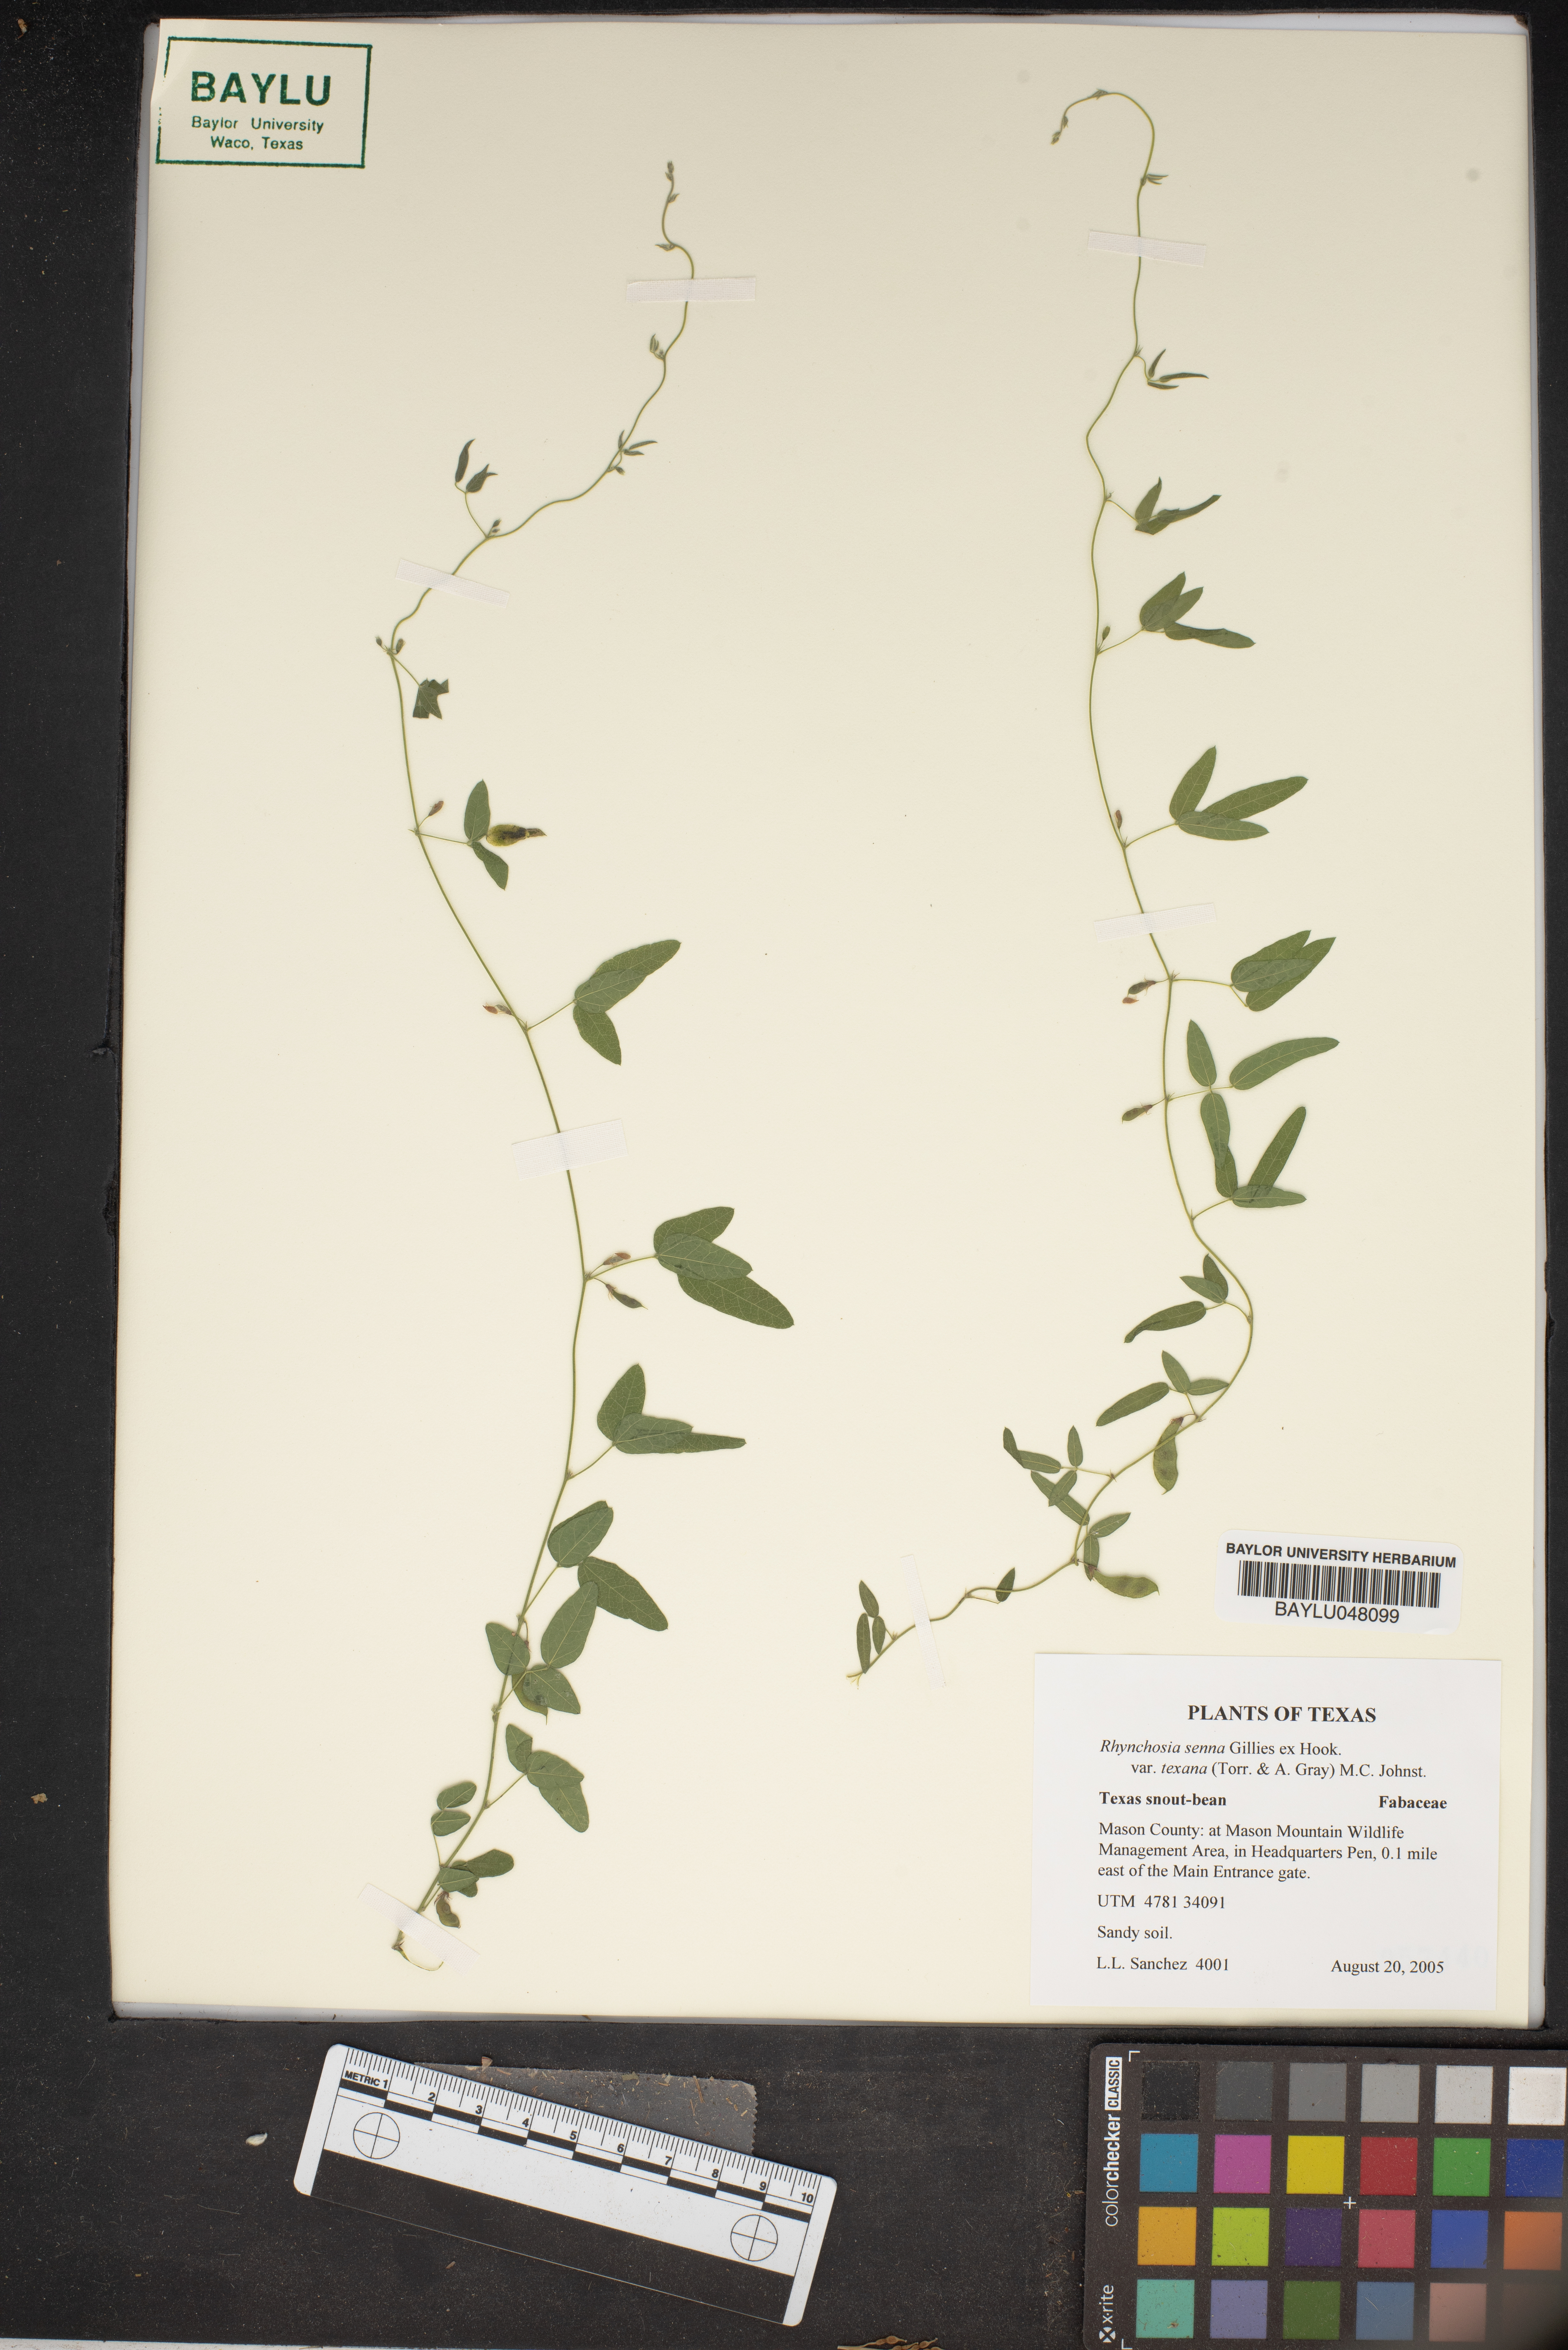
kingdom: Plantae
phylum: Tracheophyta
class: Magnoliopsida
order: Fabales
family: Fabaceae
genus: Rhynchosia
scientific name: Rhynchosia senna
